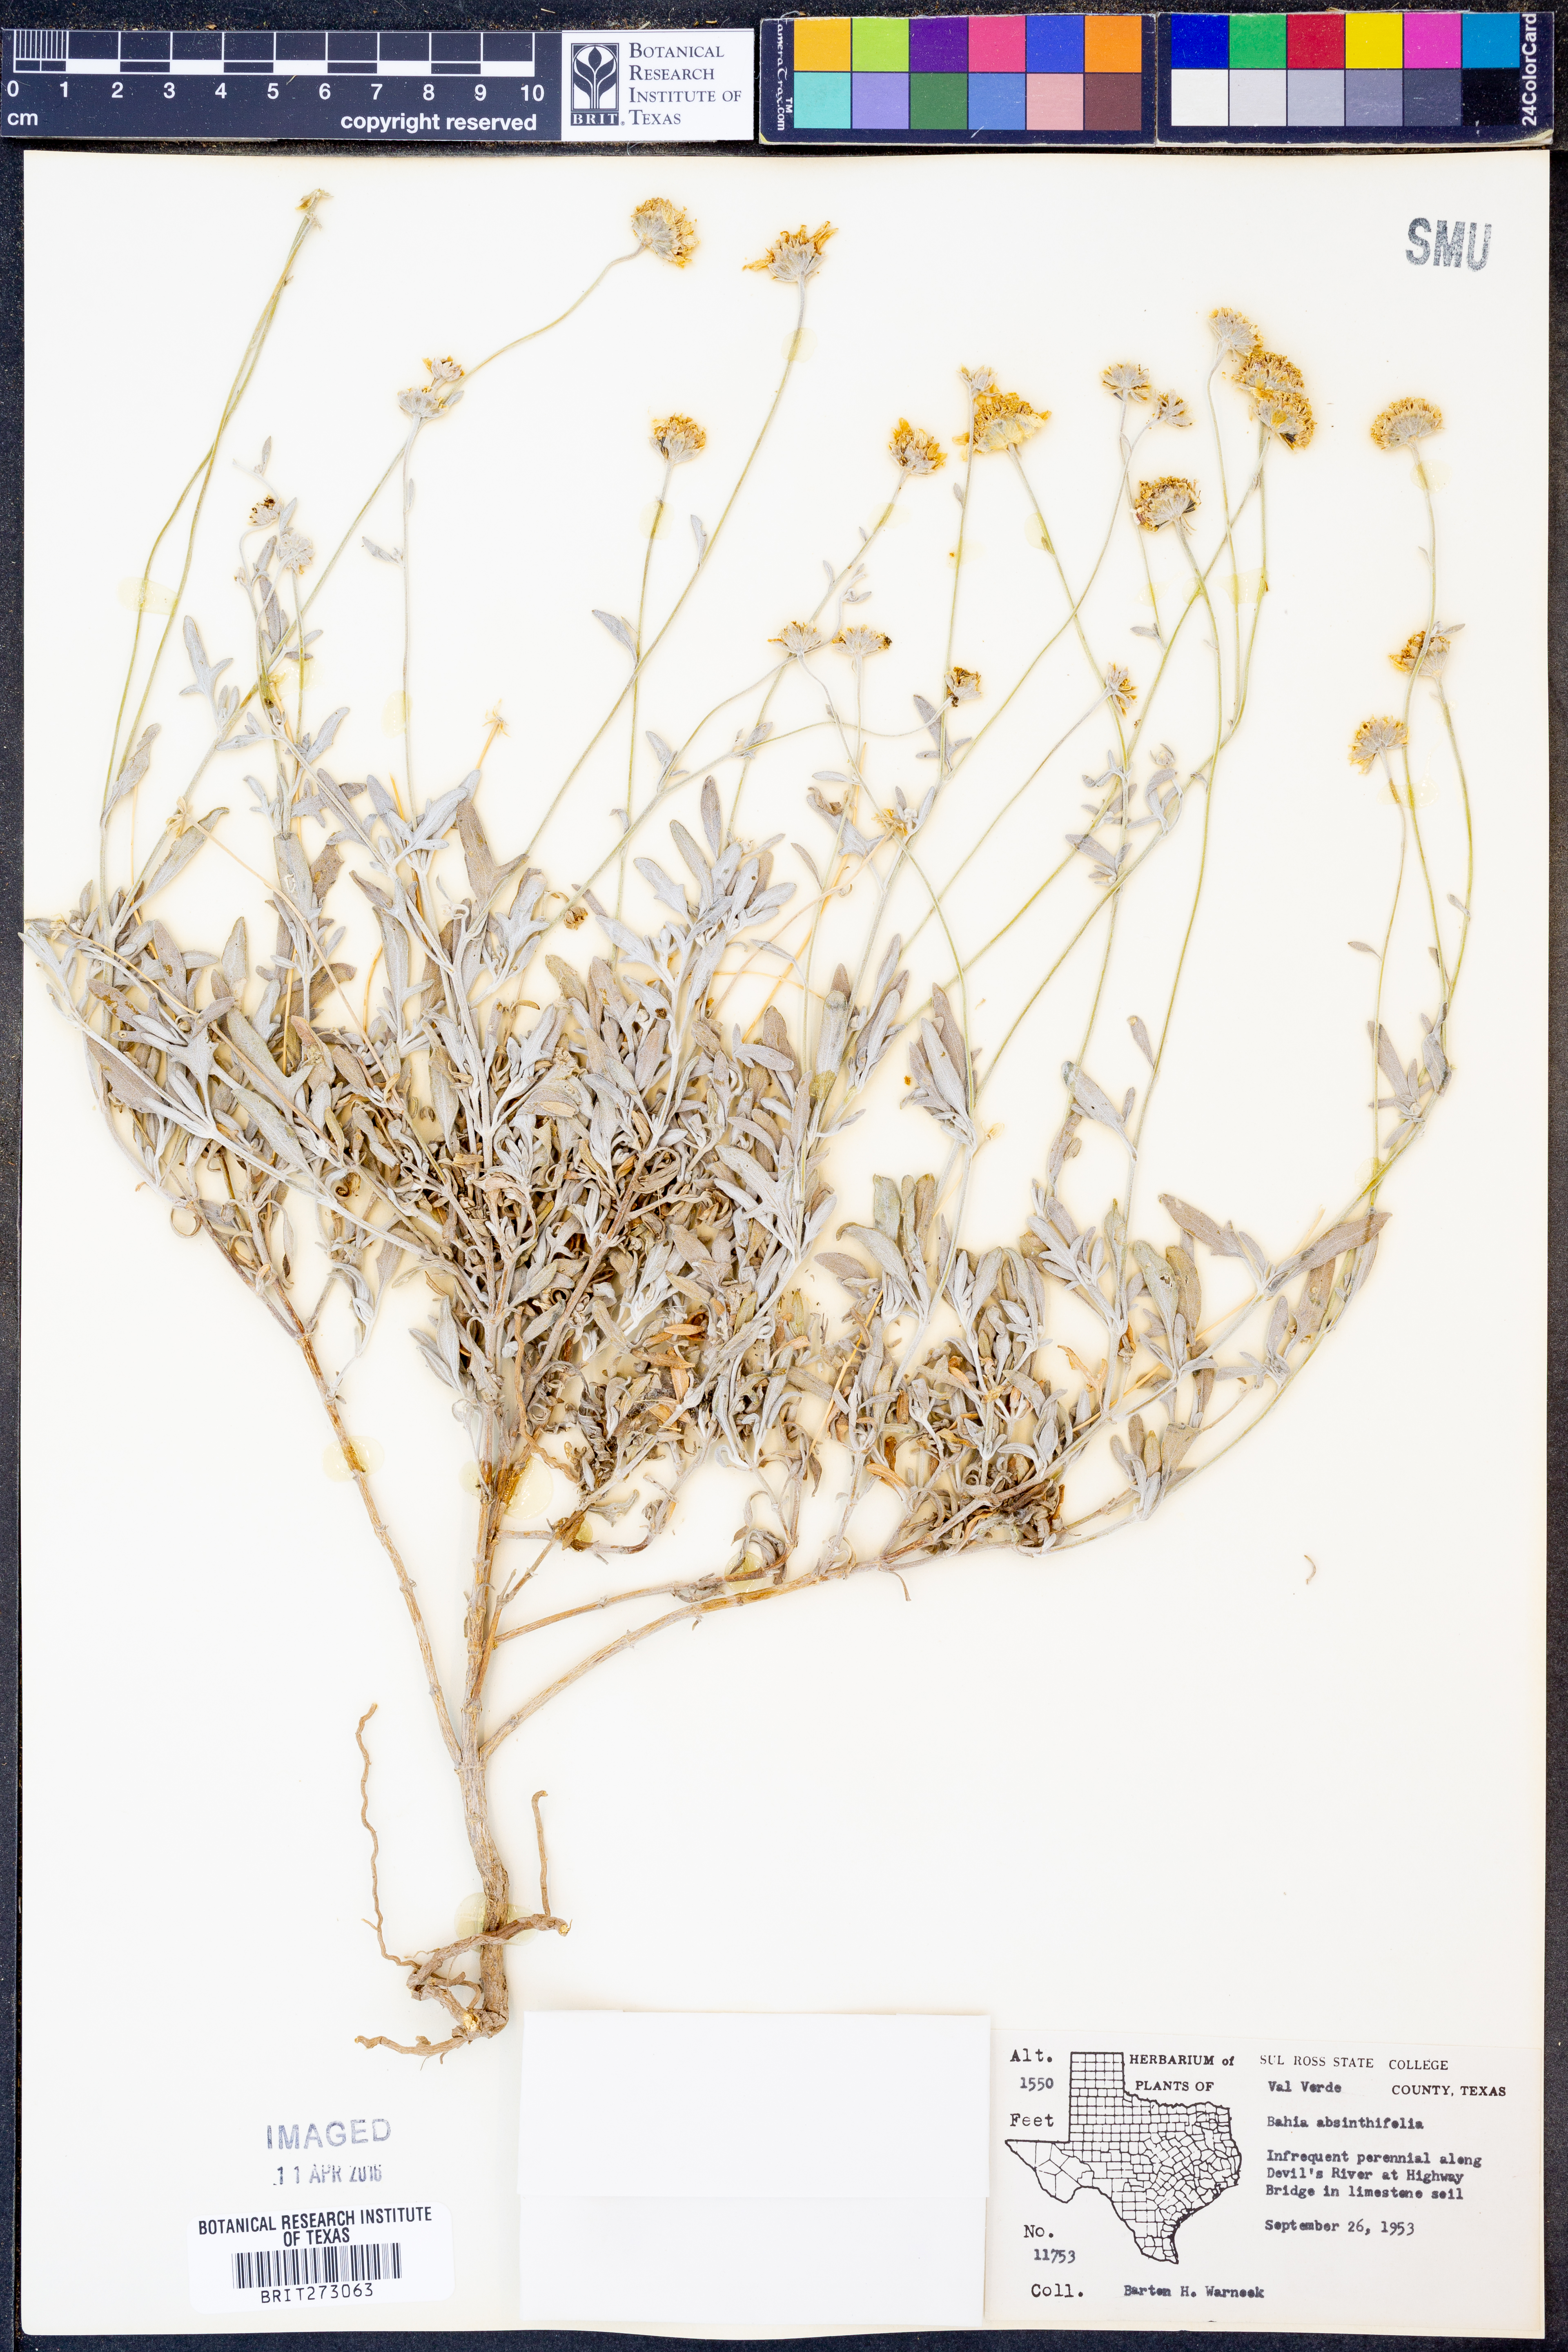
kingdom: Plantae
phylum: Tracheophyta
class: Magnoliopsida
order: Asterales
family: Asteraceae
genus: Picradeniopsis
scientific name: Picradeniopsis absinthifolia
